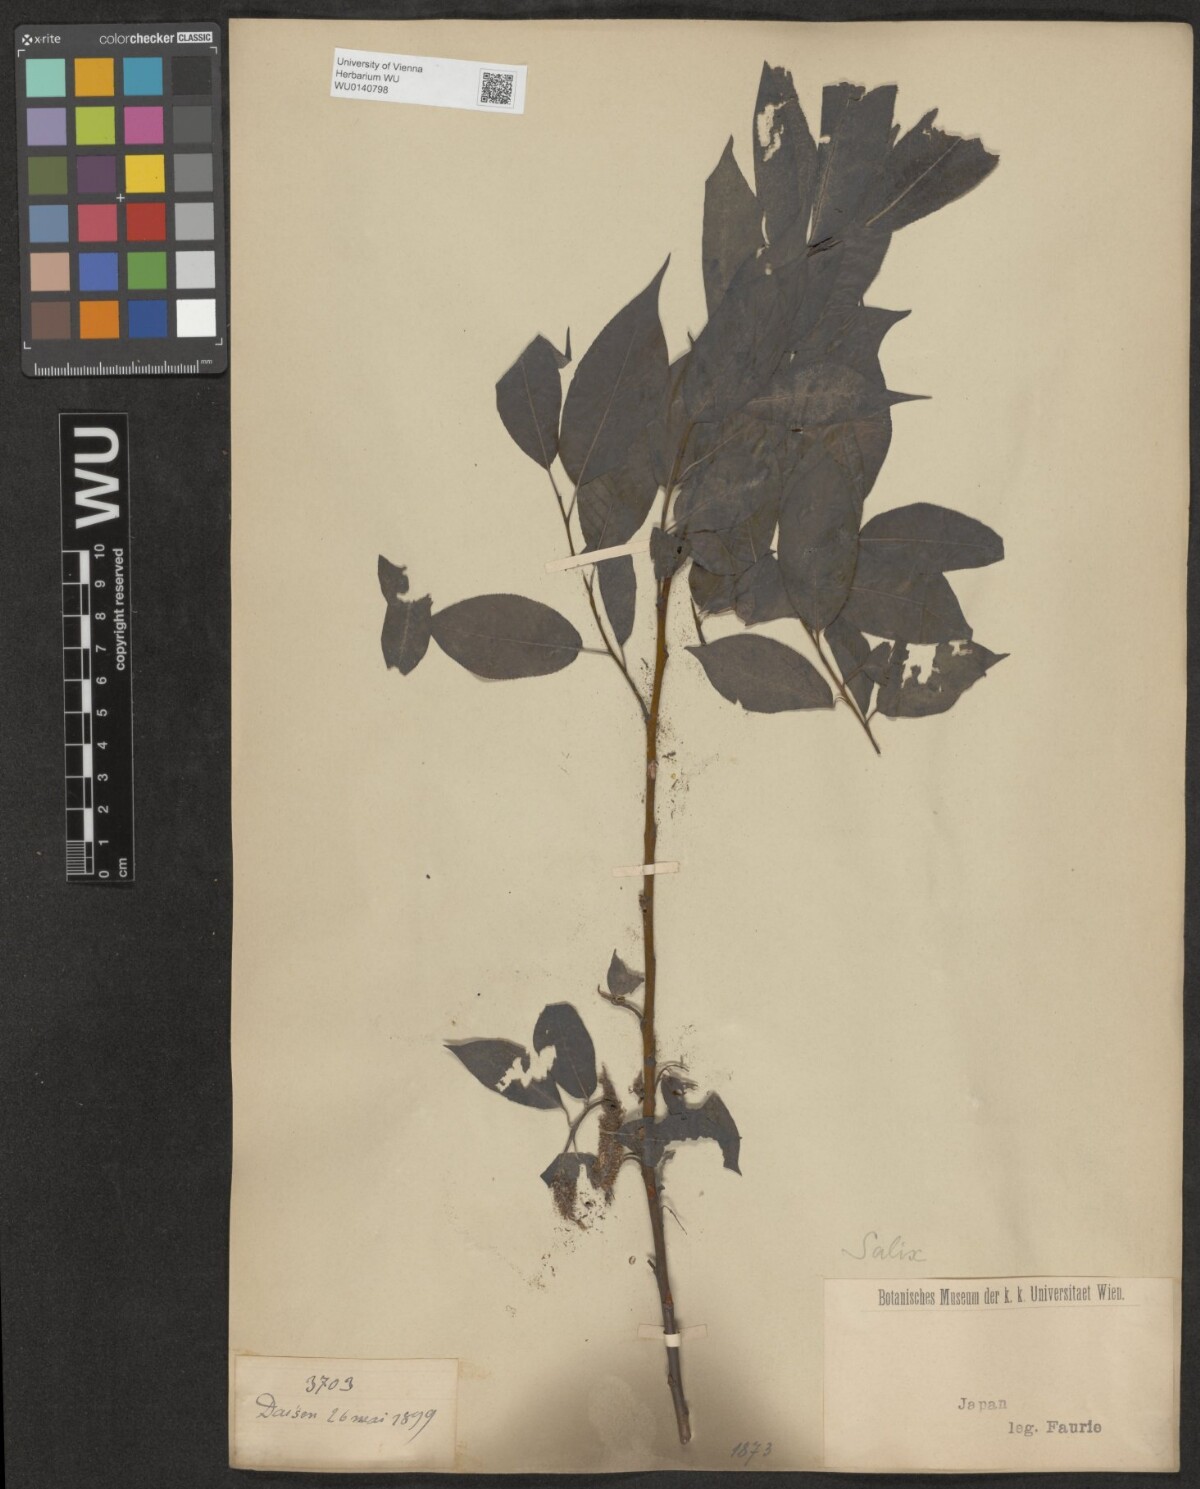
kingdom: Plantae
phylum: Tracheophyta
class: Magnoliopsida
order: Malpighiales
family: Salicaceae
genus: Salix
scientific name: Salix
